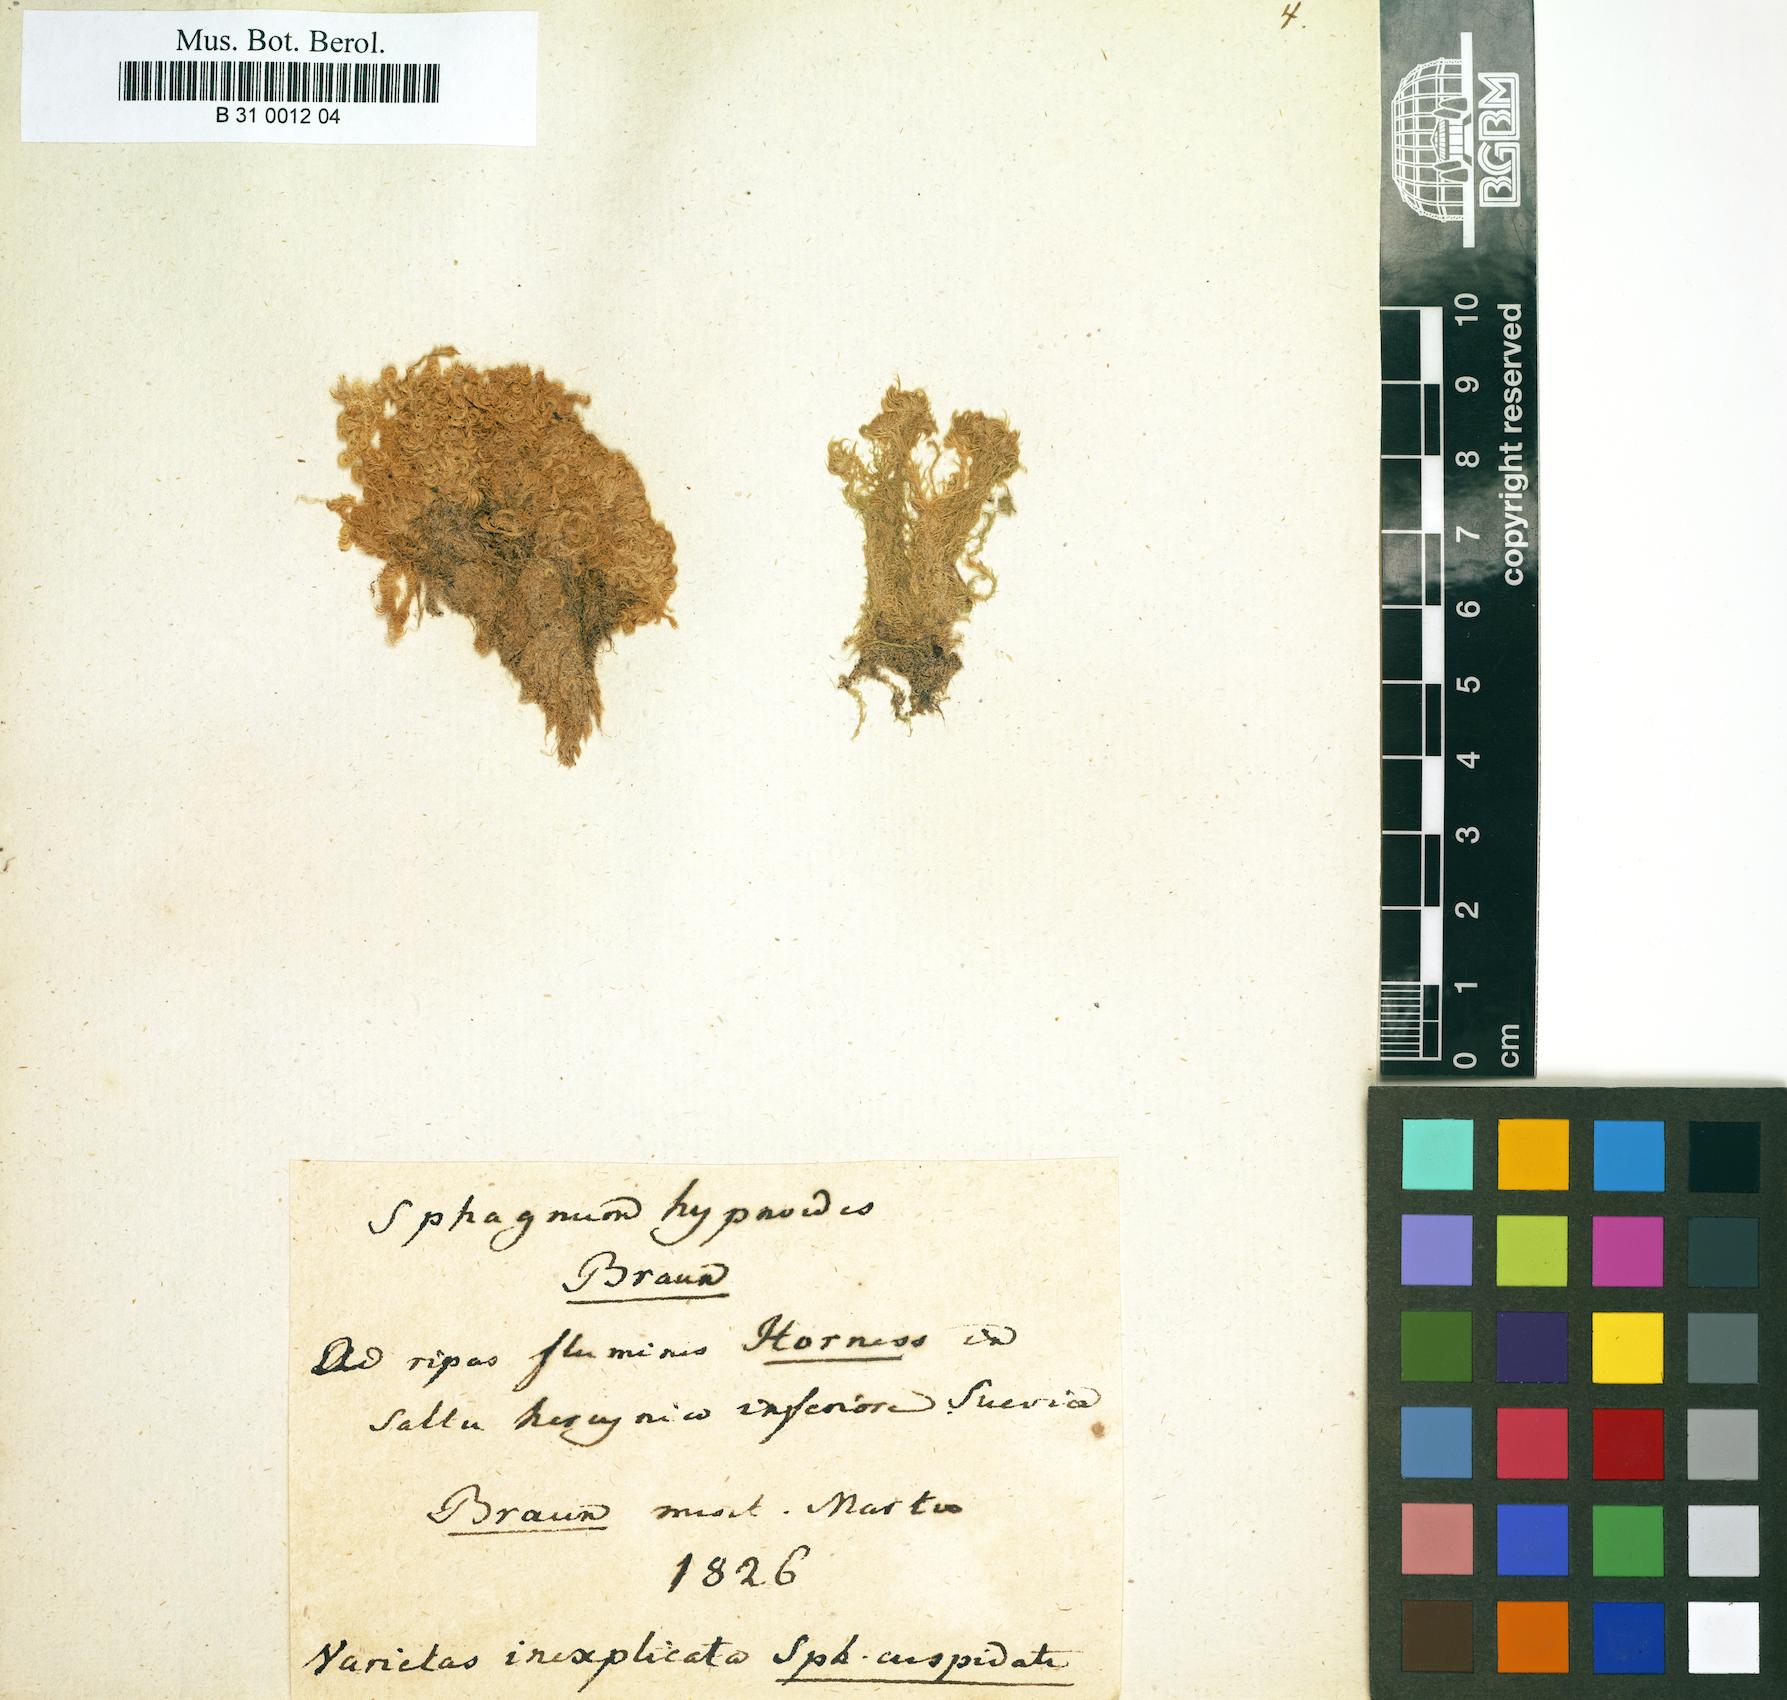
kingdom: Plantae
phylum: Bryophyta
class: Sphagnopsida
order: Sphagnales
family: Sphagnaceae
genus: Sphagnum
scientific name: Sphagnum cuspidatum
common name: Feathery peat moss
